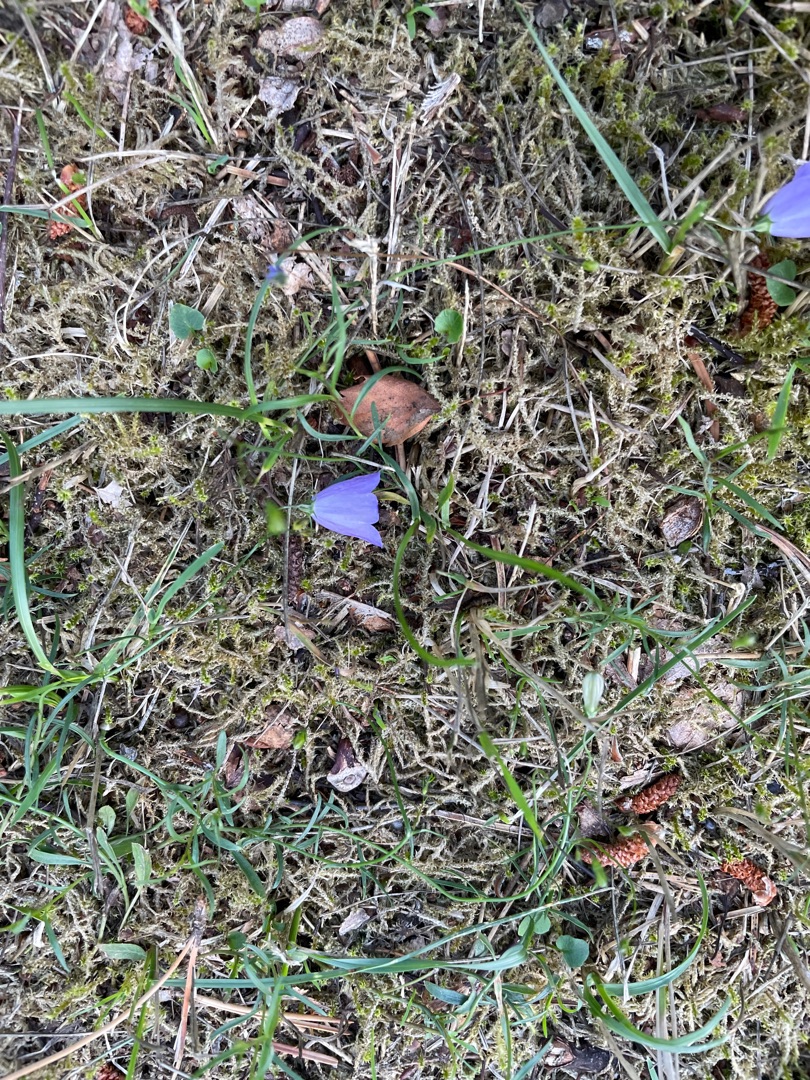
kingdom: Plantae
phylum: Tracheophyta
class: Magnoliopsida
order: Asterales
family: Campanulaceae
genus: Campanula
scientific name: Campanula rotundifolia
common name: Liden klokke
